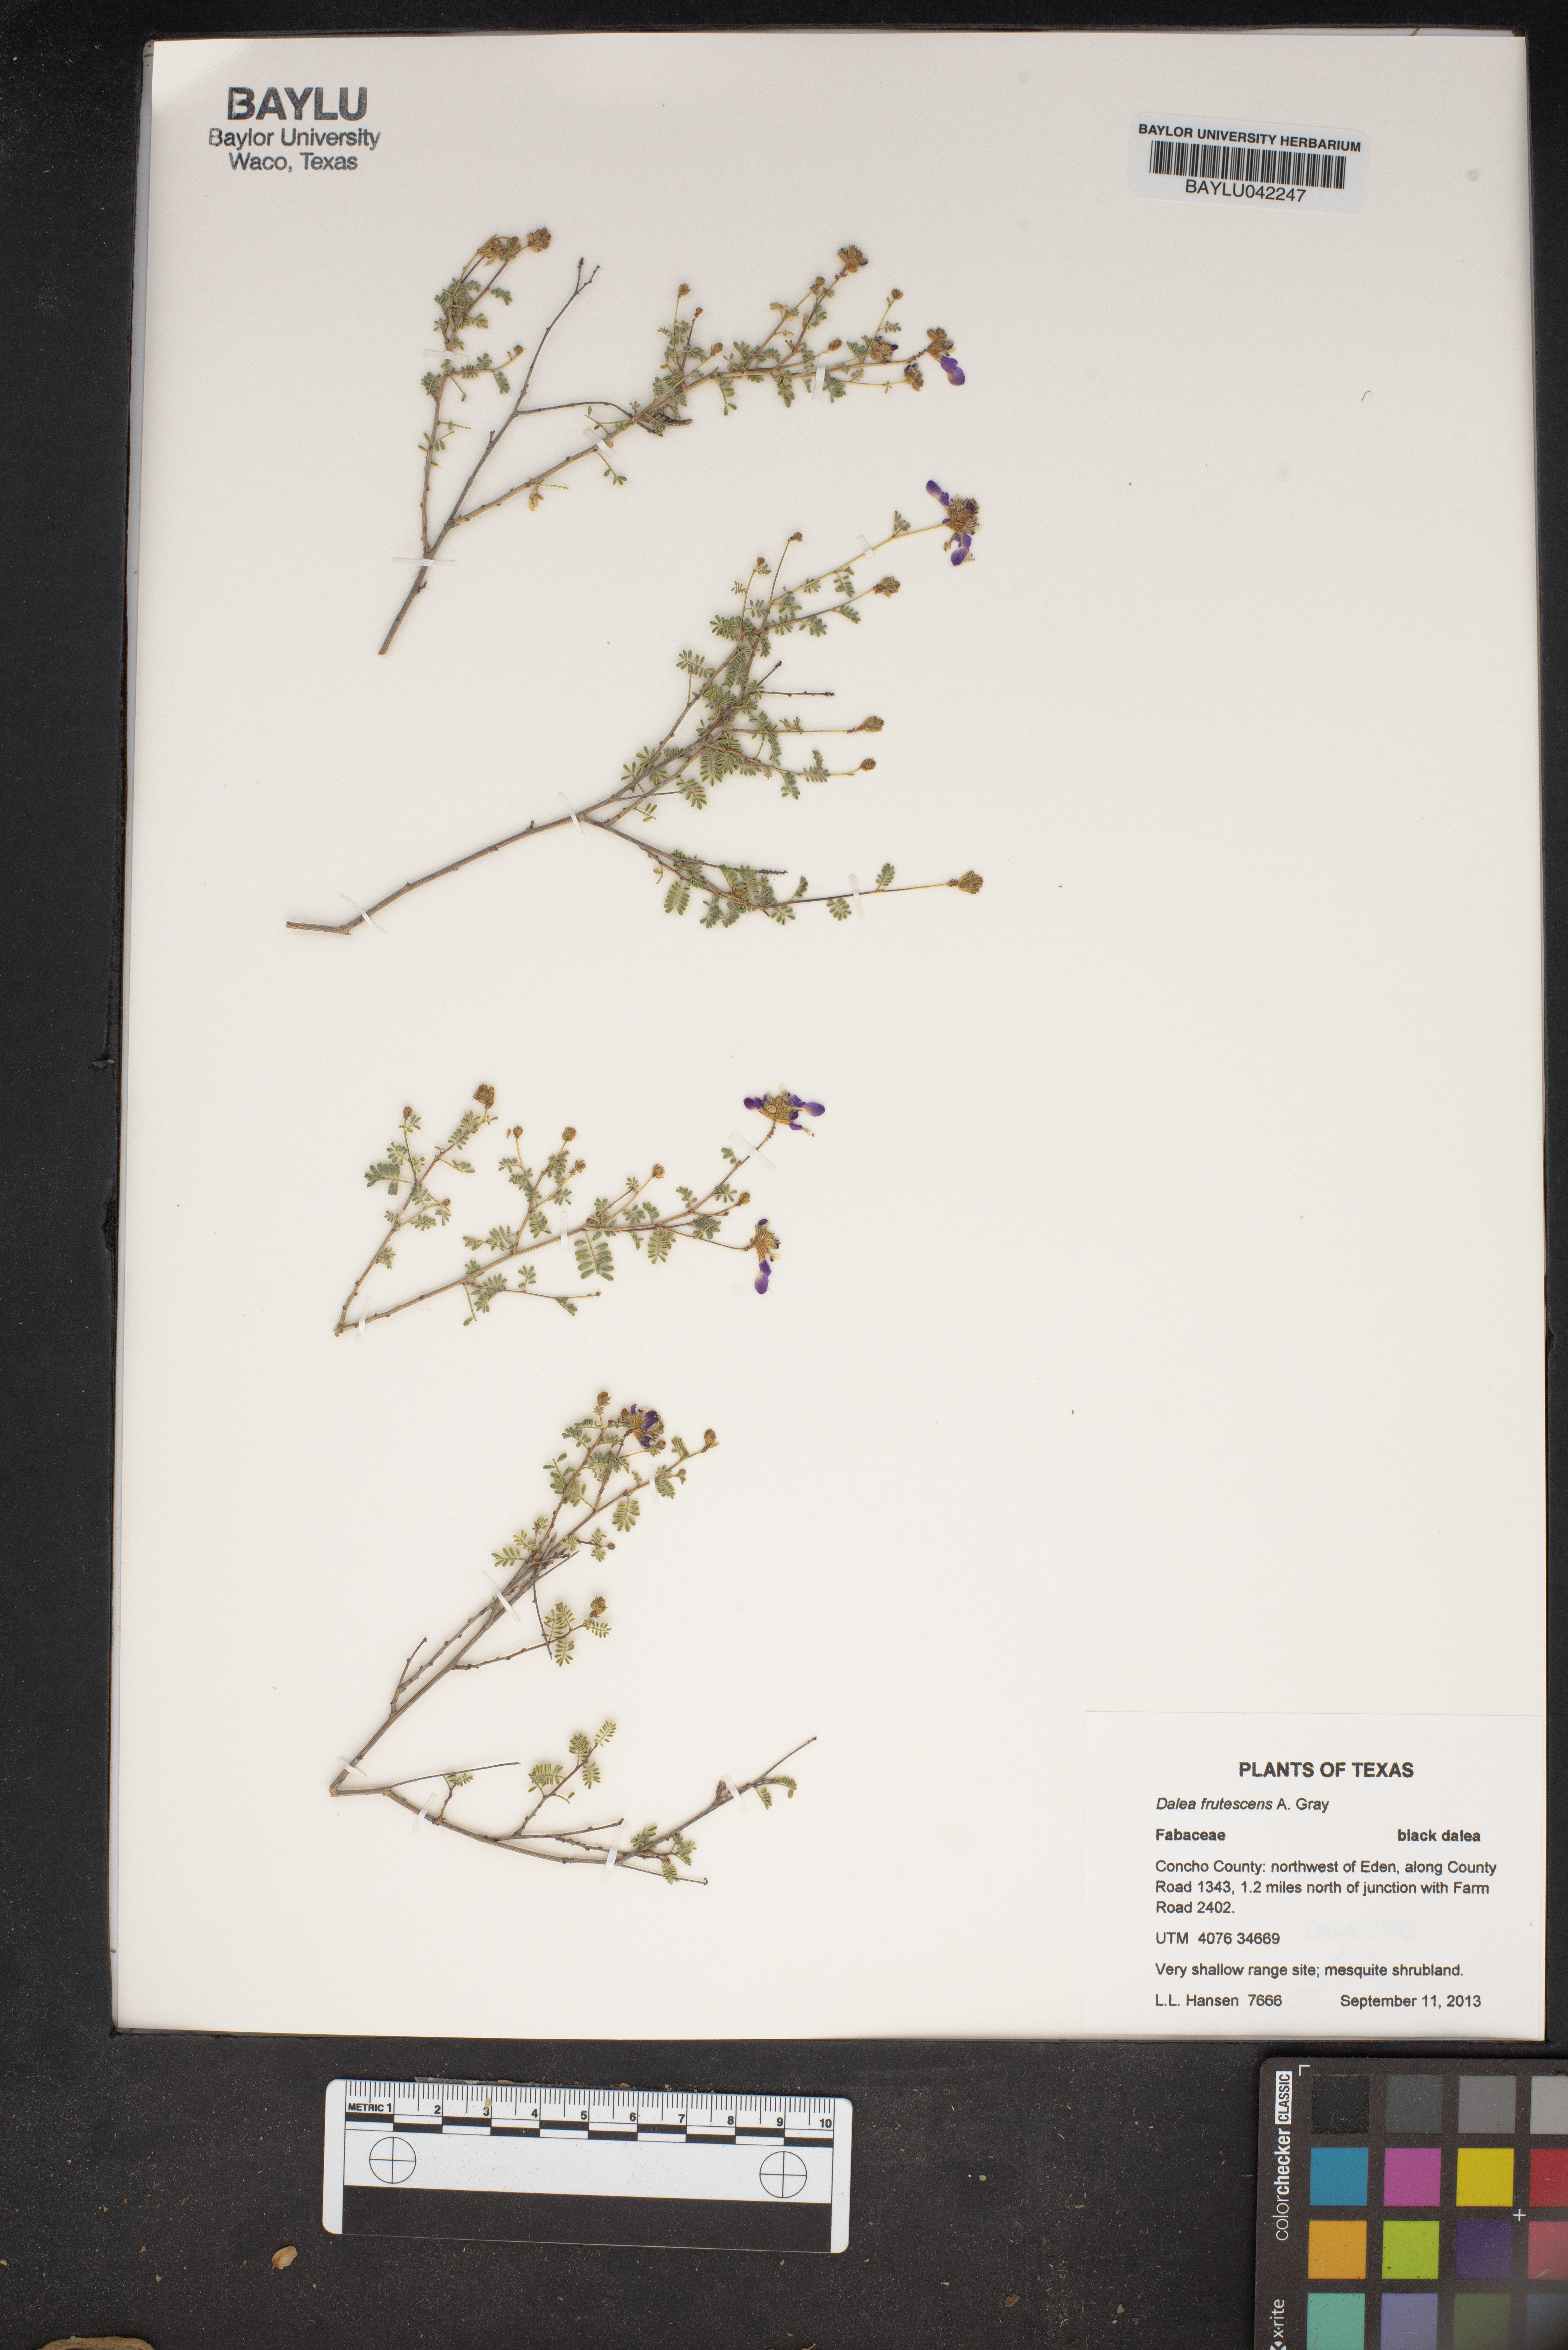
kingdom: Plantae
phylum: Tracheophyta
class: Magnoliopsida
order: Fabales
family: Fabaceae
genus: Dalea
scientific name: Dalea frutescens
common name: Black dalea
